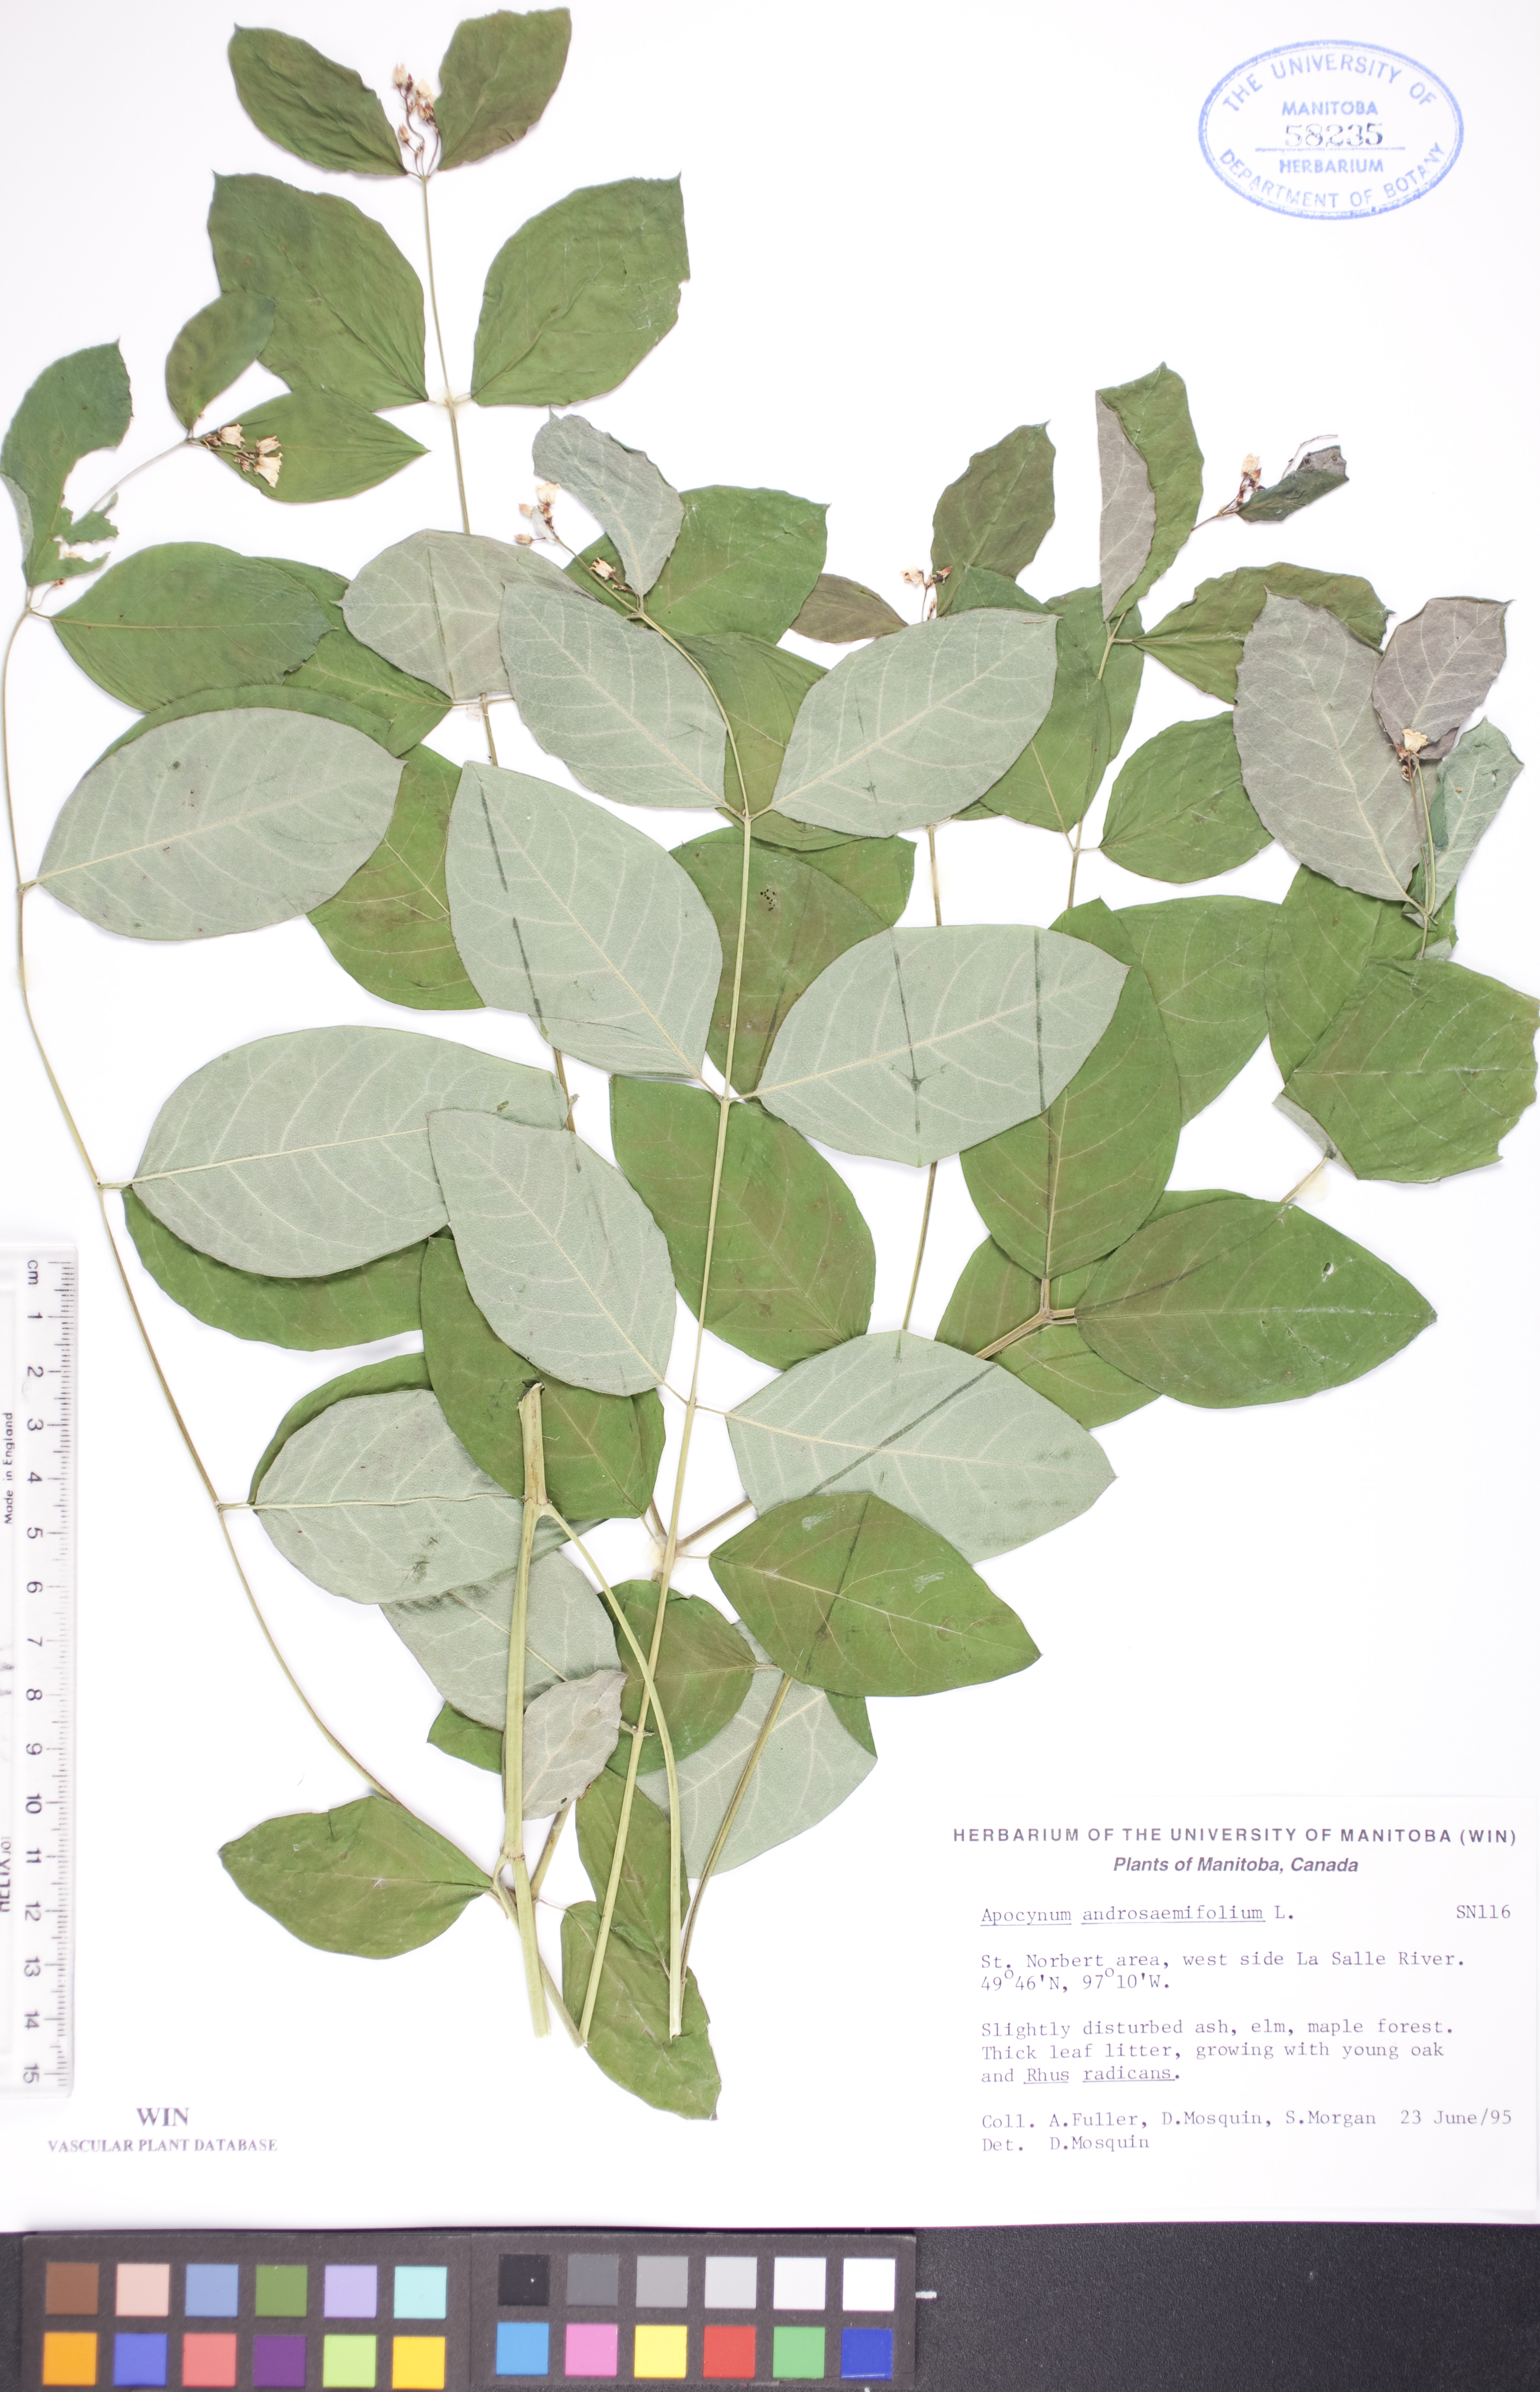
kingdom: Plantae
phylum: Tracheophyta
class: Magnoliopsida
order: Gentianales
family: Apocynaceae
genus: Apocynum
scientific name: Apocynum androsaemifolium
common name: Spreading dogbane
